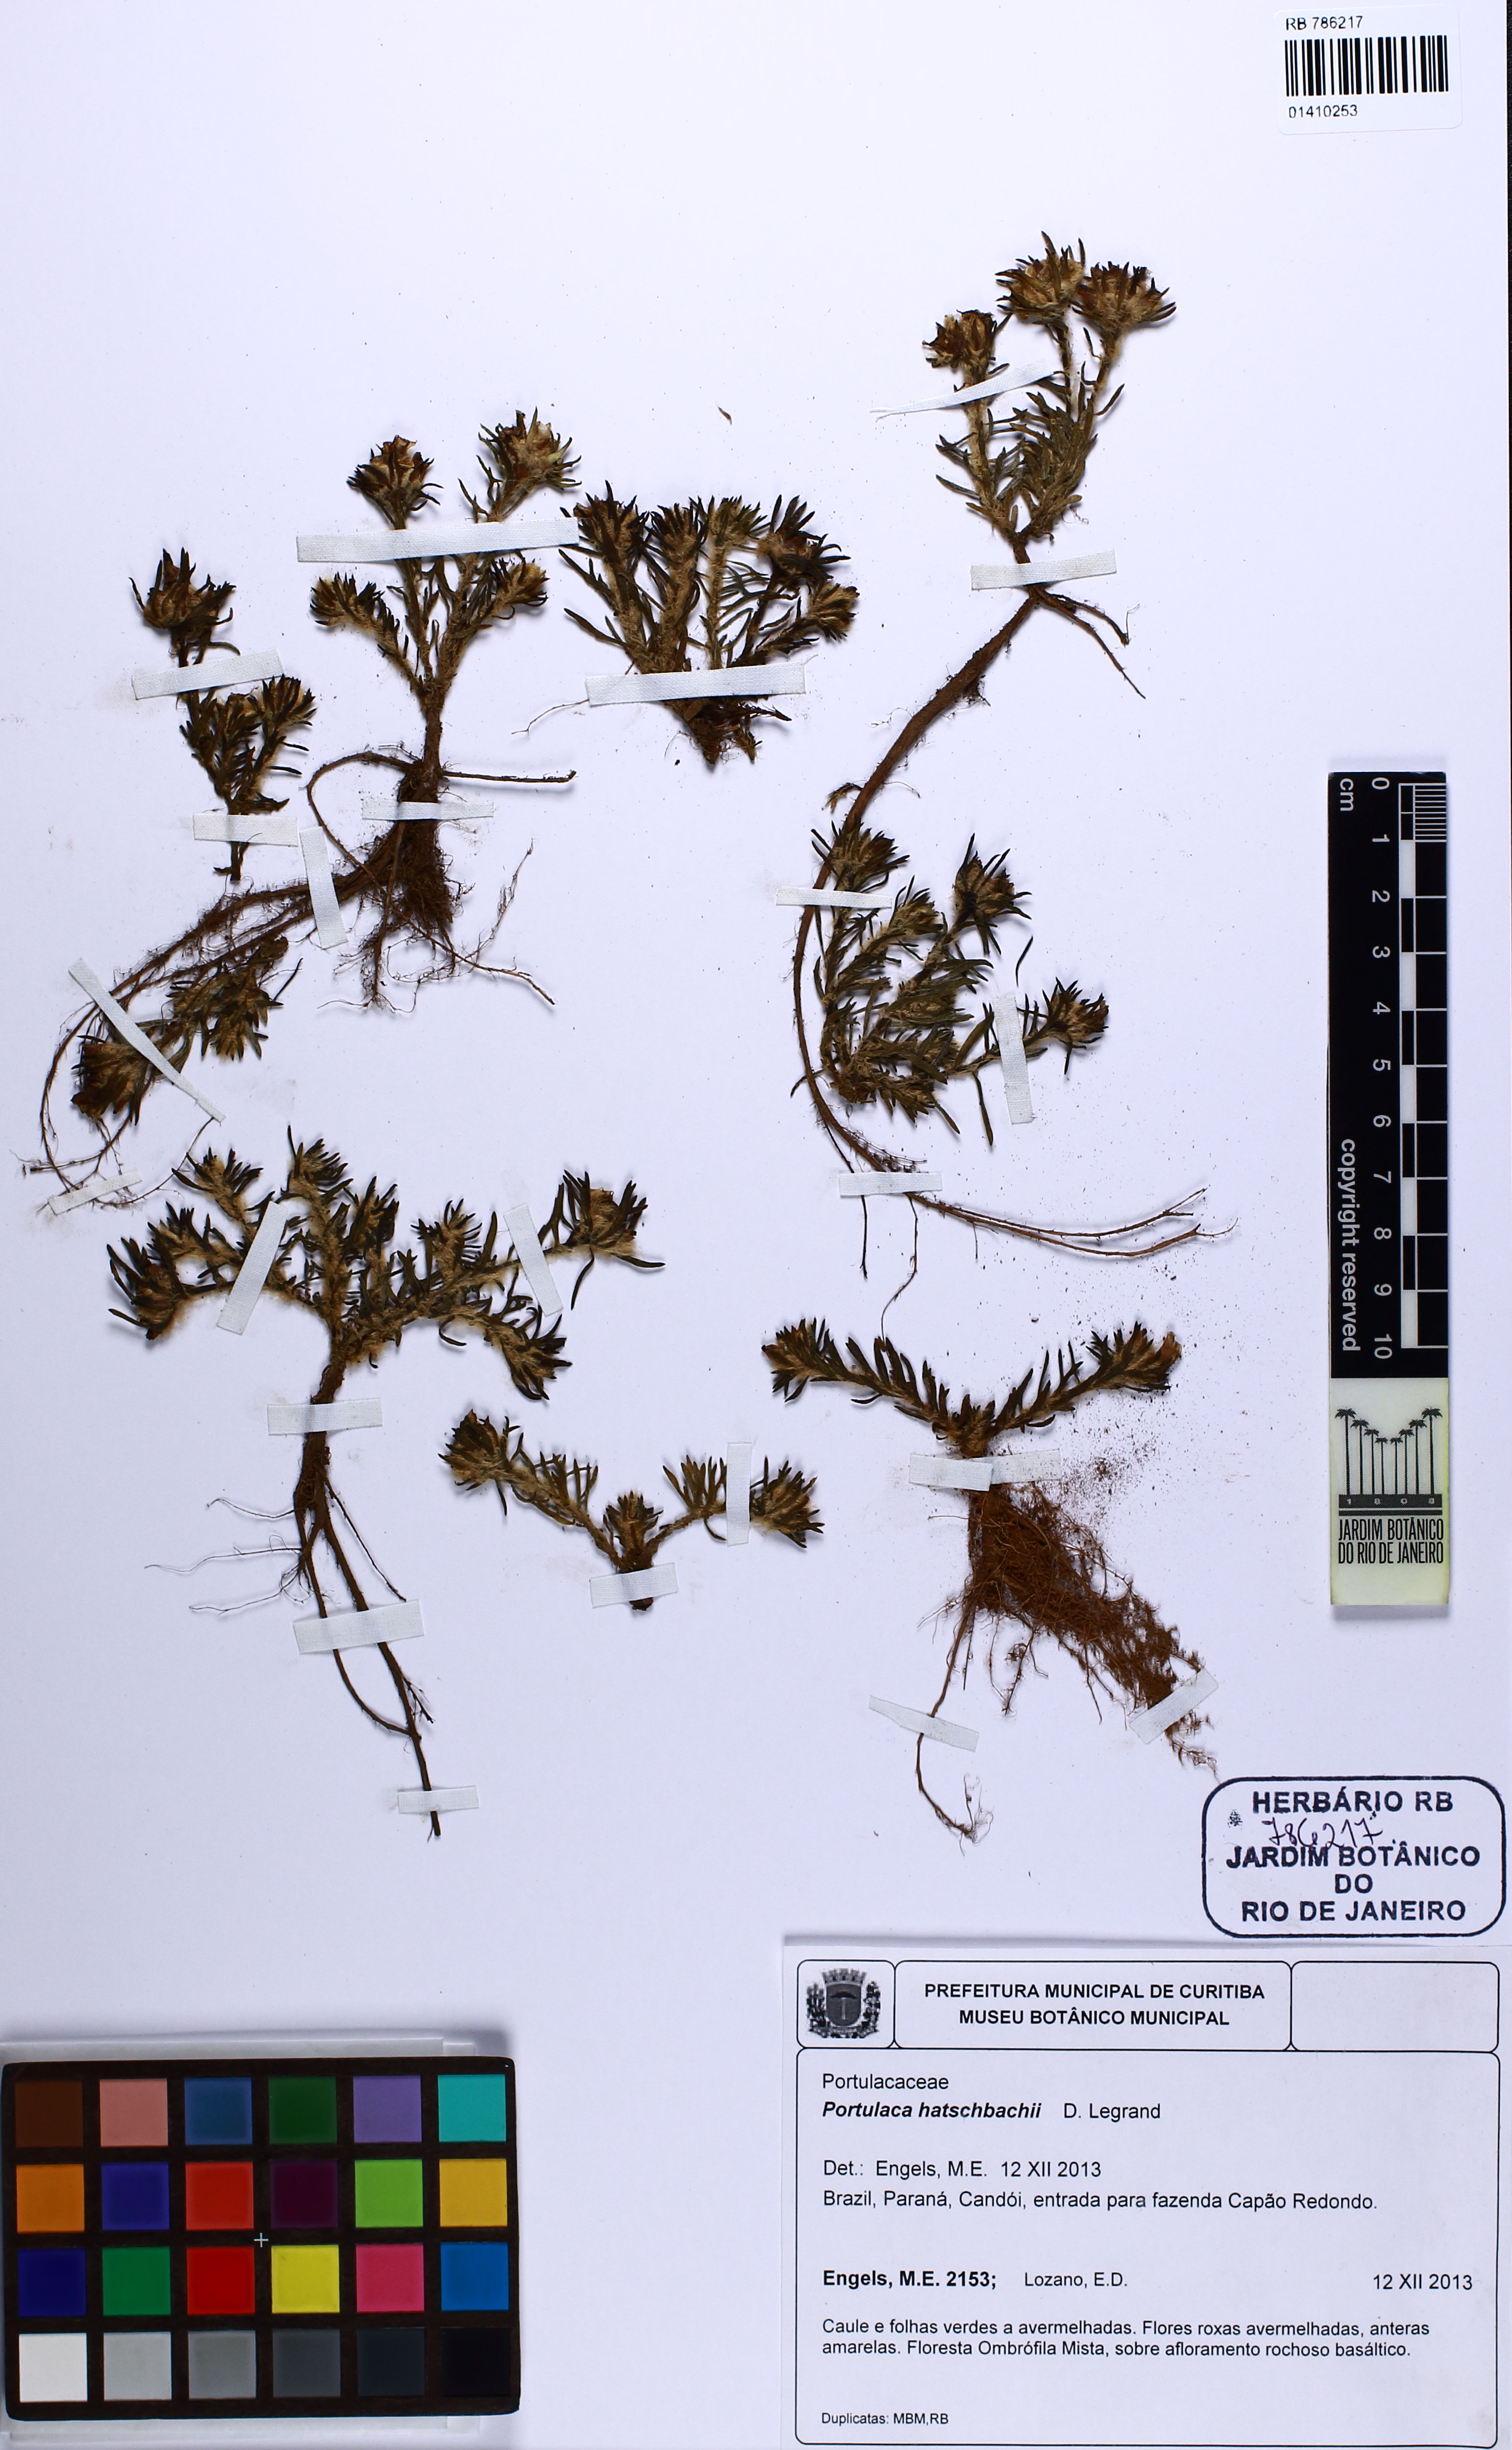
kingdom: Plantae
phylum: Tracheophyta
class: Magnoliopsida
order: Caryophyllales
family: Portulacaceae
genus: Portulaca
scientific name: Portulaca hatschbachii
